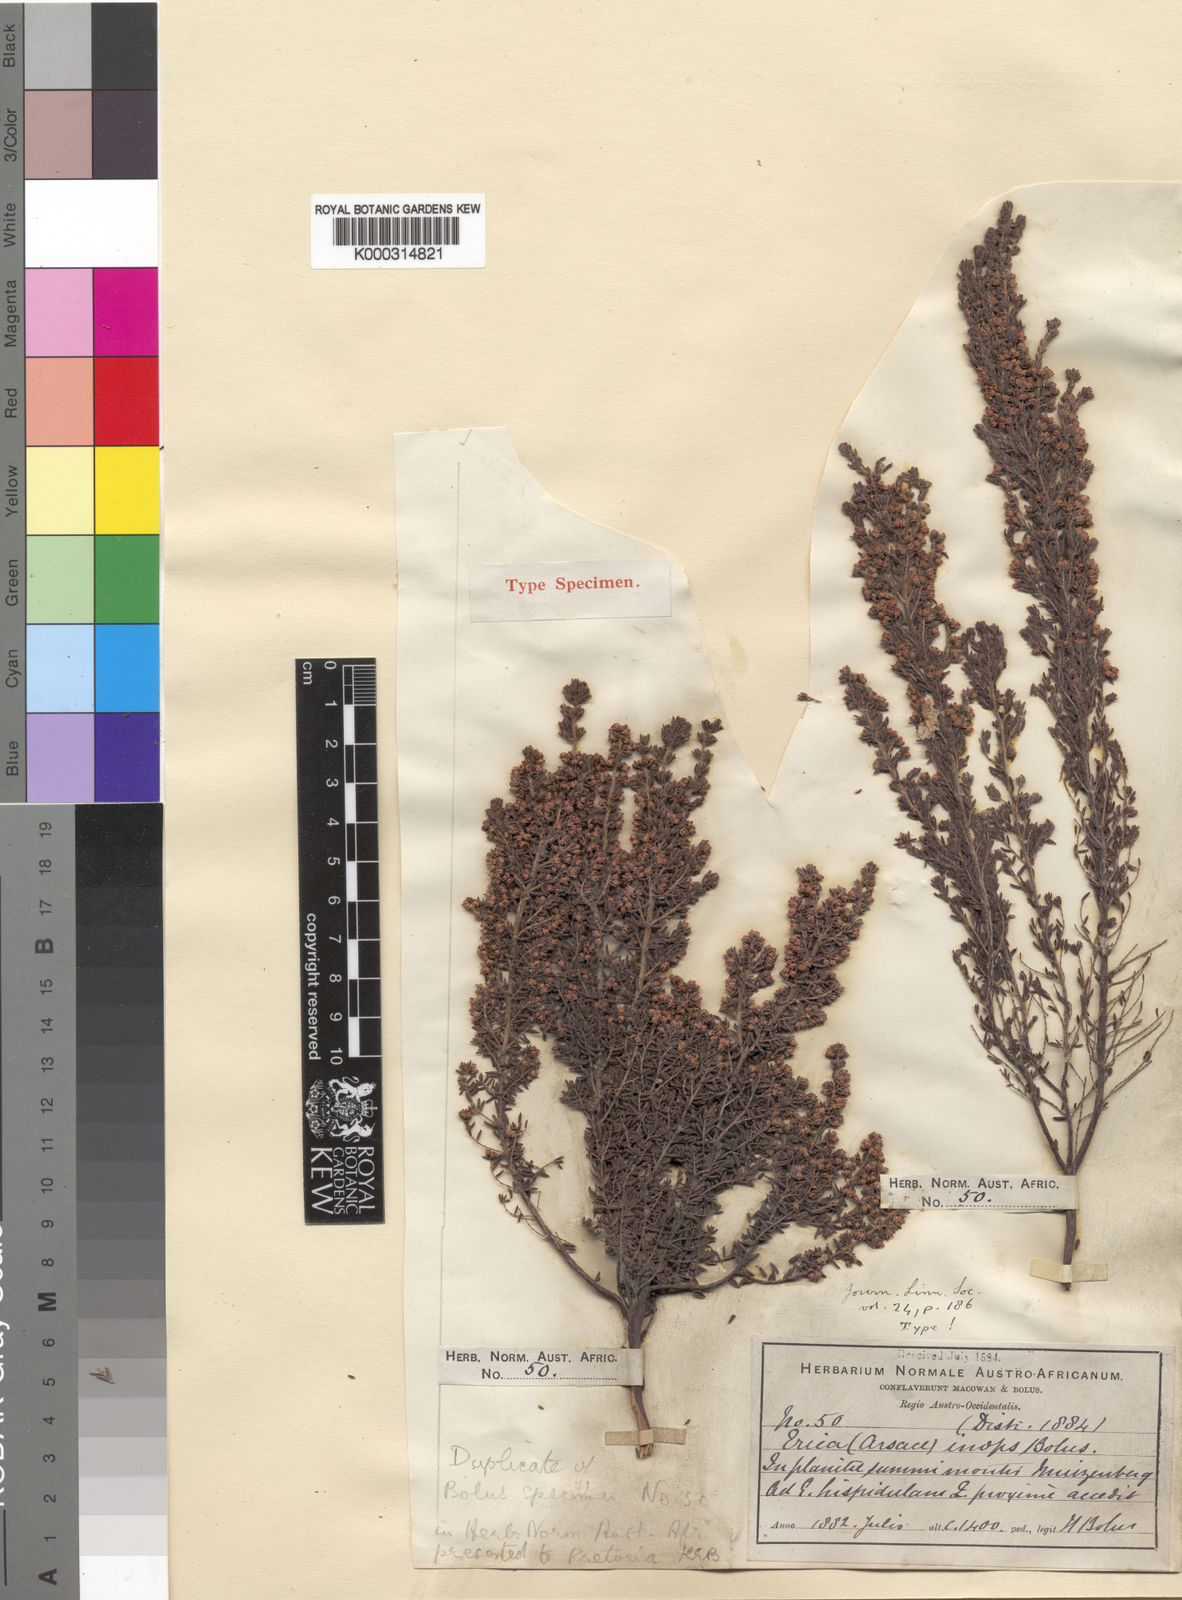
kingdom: Plantae
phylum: Tracheophyta
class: Magnoliopsida
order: Ericales
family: Ericaceae
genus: Erica
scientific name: Erica hispidula
